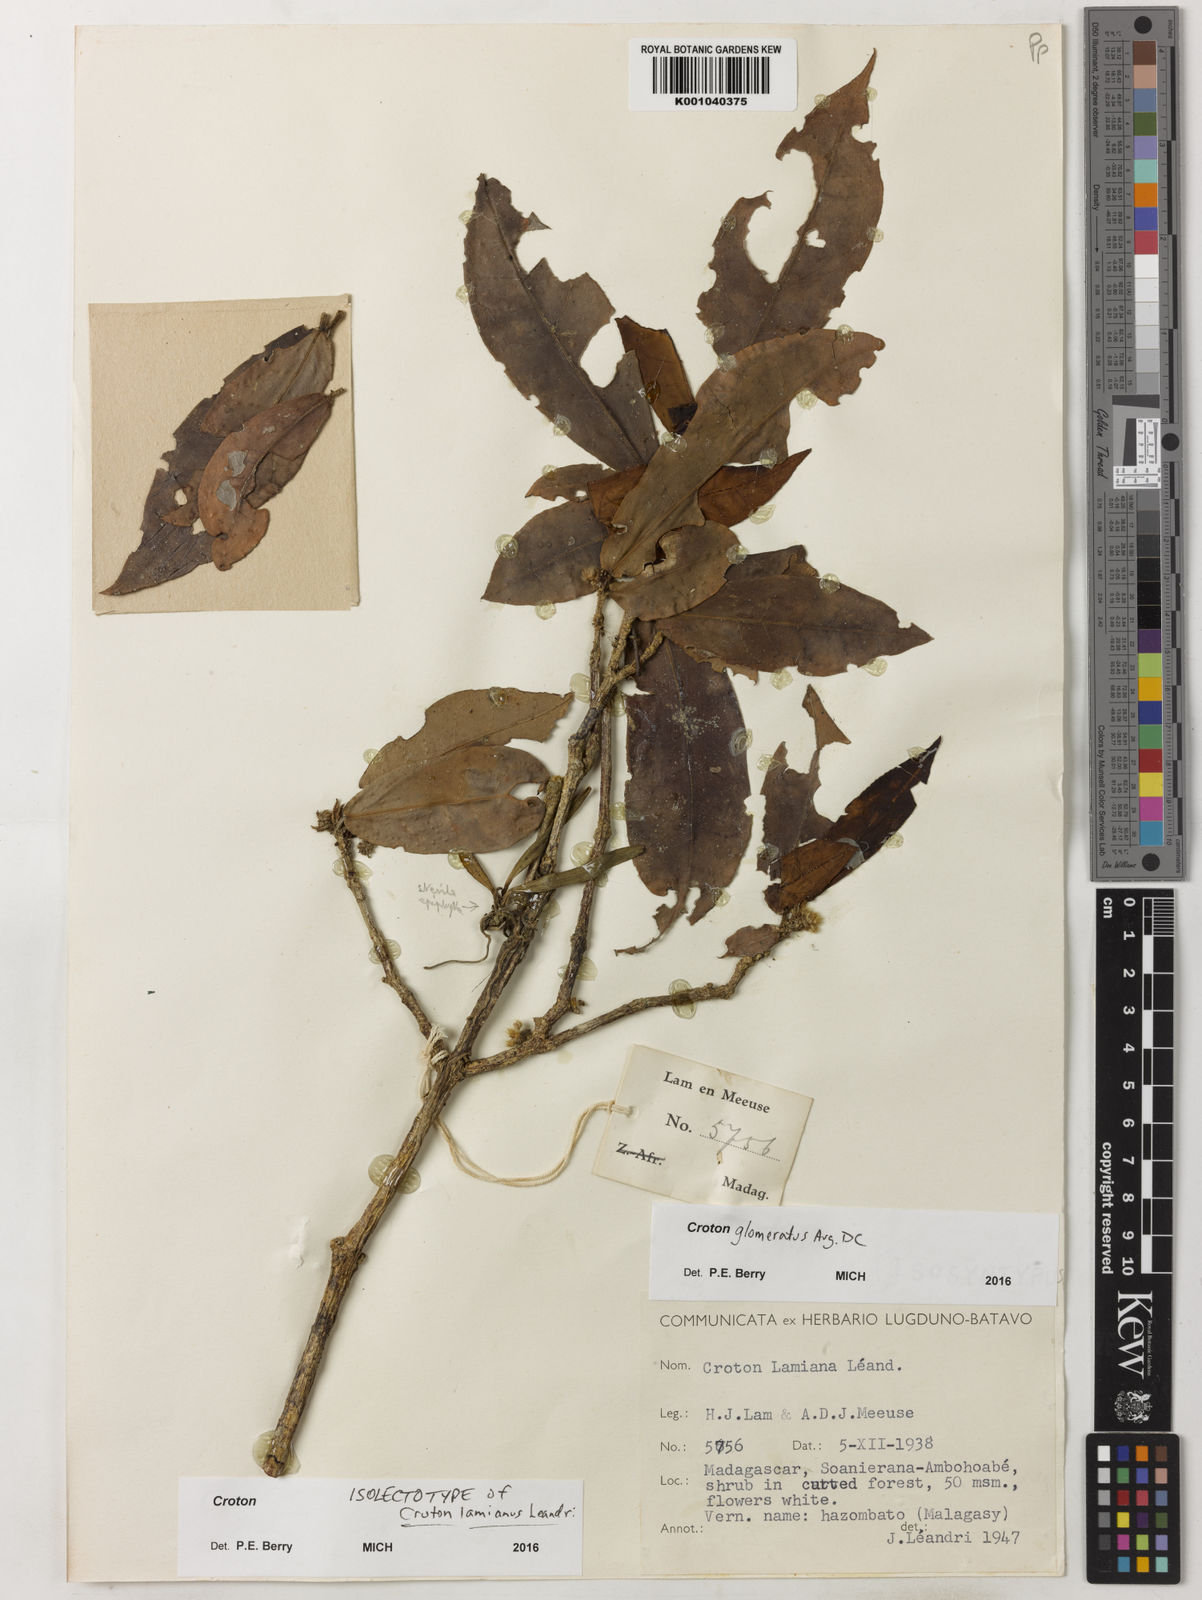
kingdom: Plantae
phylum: Tracheophyta
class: Magnoliopsida
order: Malpighiales
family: Euphorbiaceae
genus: Croton
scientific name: Croton glomeratus
